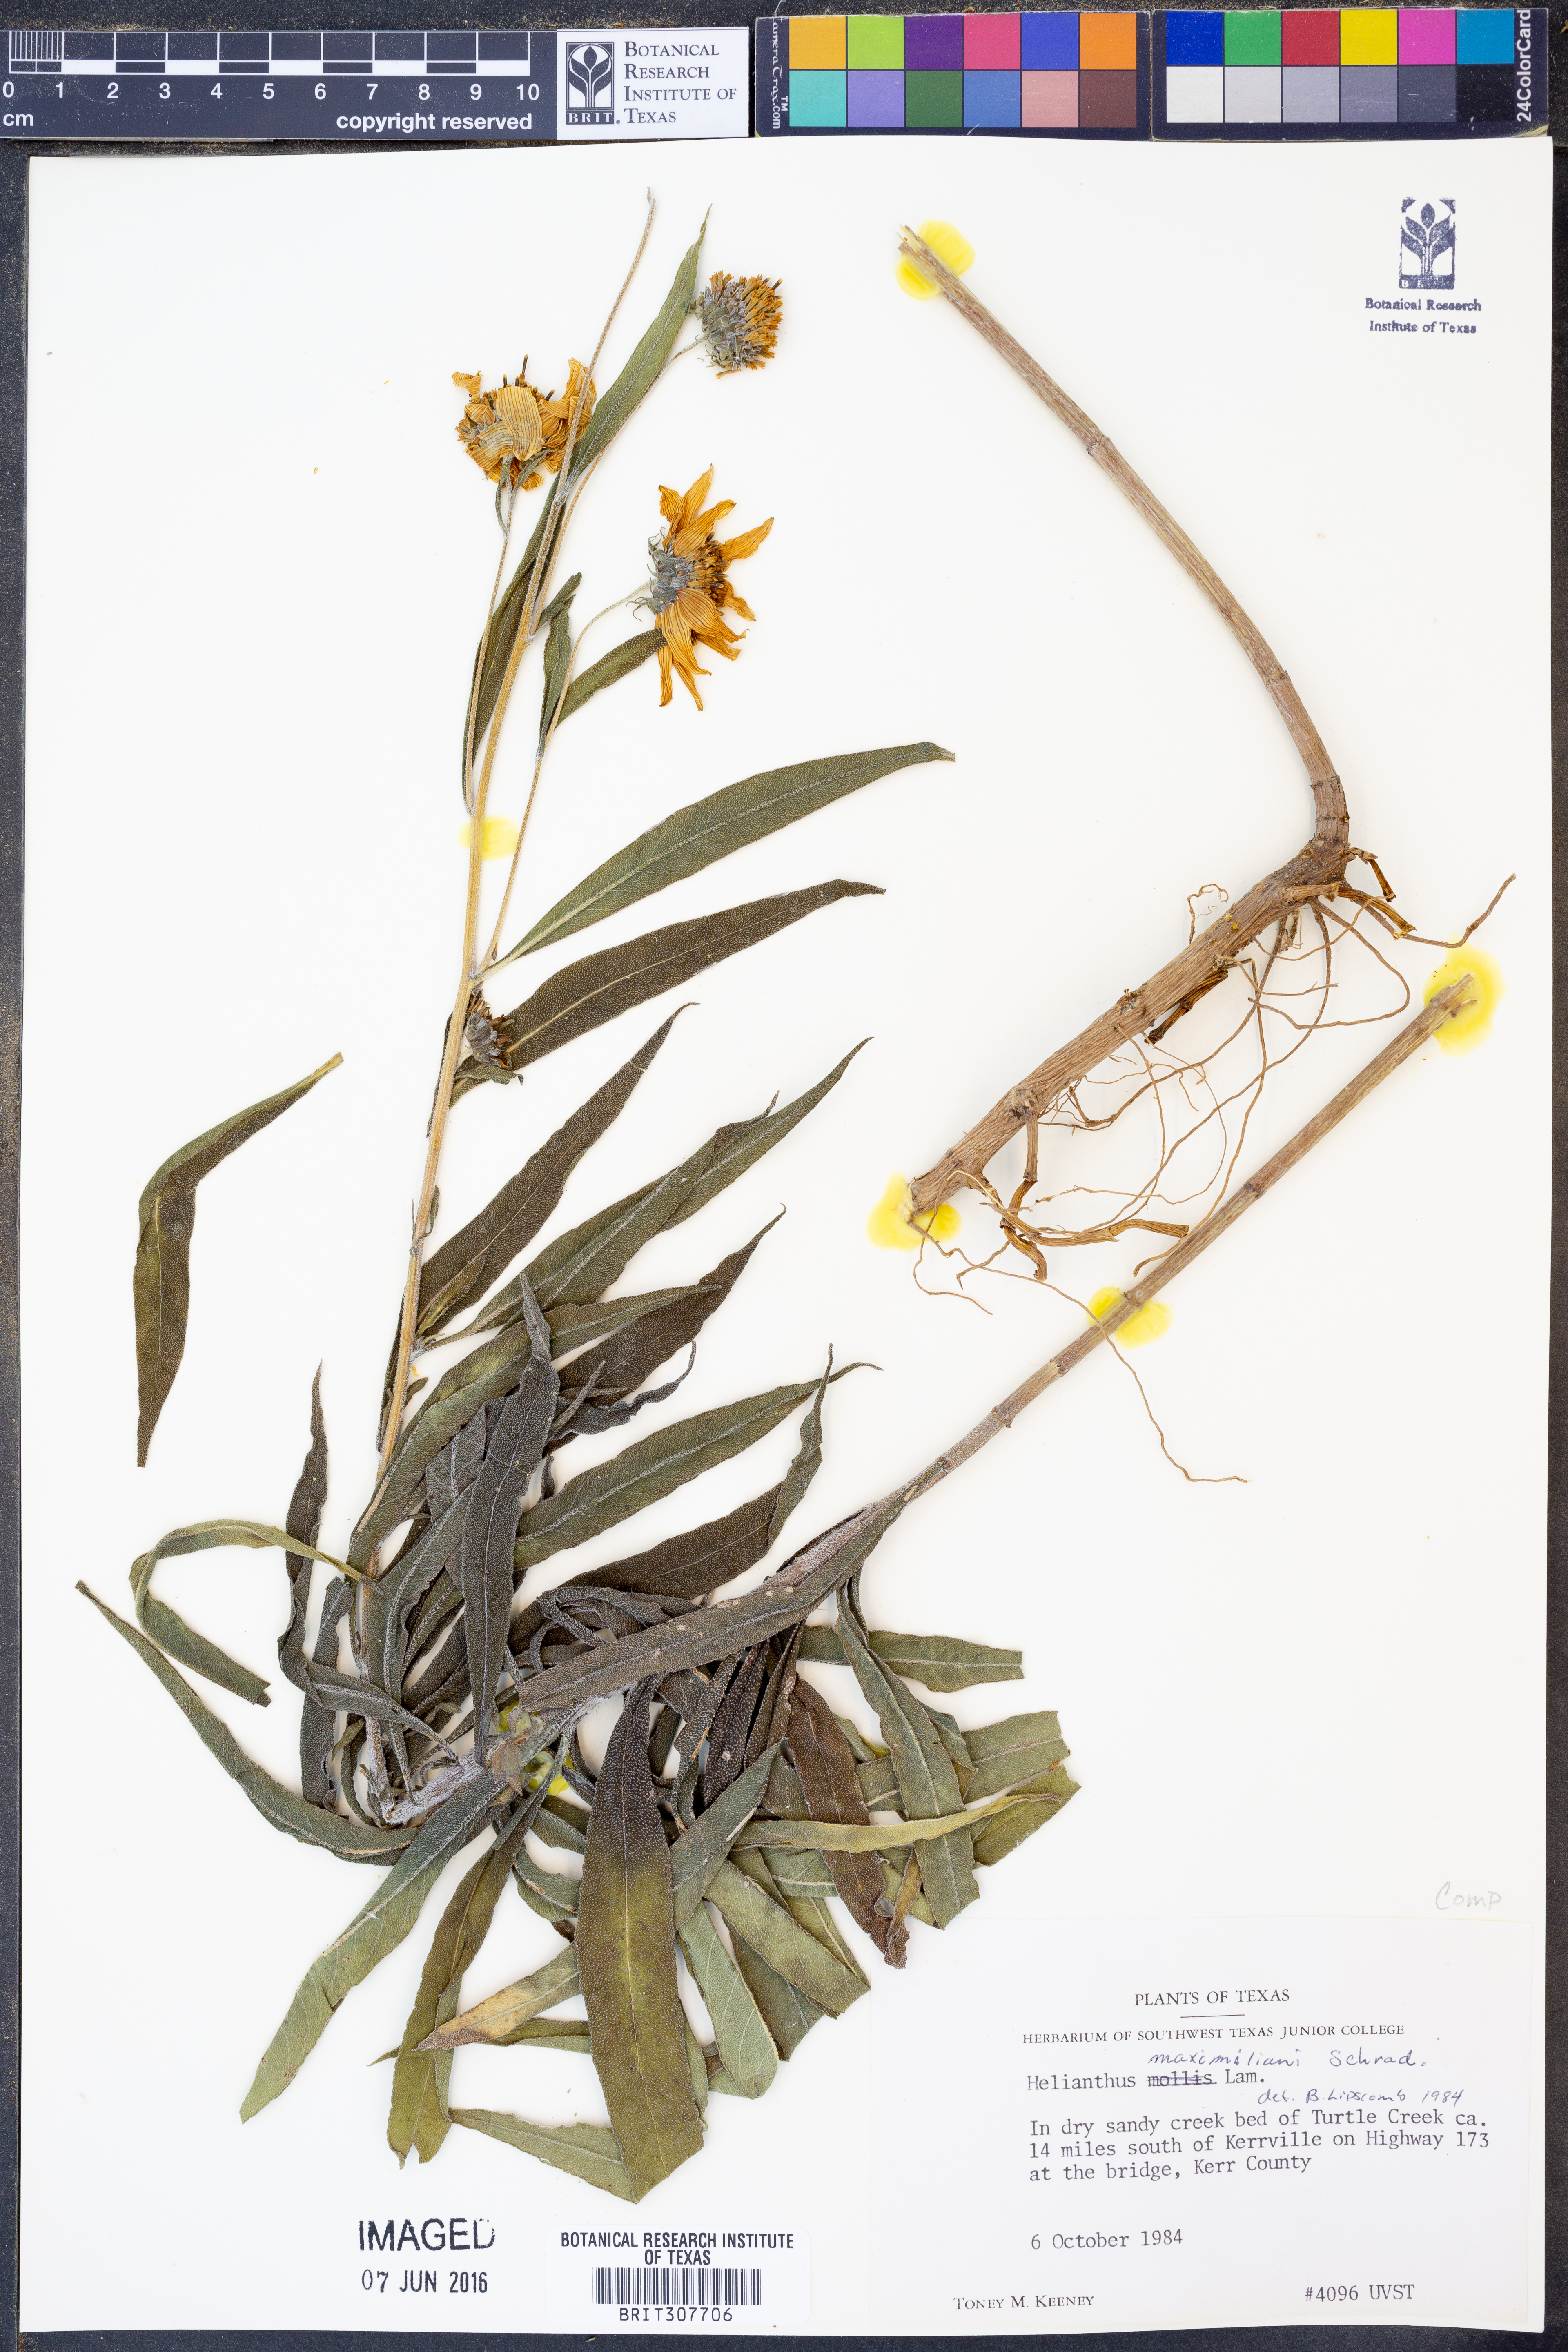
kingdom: Plantae
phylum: Tracheophyta
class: Magnoliopsida
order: Asterales
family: Asteraceae
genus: Helianthus
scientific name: Helianthus maximiliani
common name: Maximilian's sunflower
